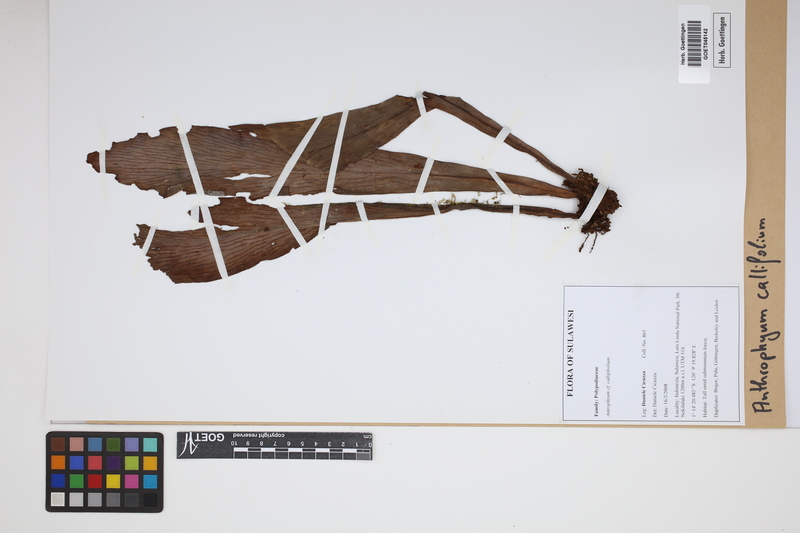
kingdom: Plantae
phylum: Tracheophyta
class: Polypodiopsida
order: Polypodiales
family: Pteridaceae
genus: Antrophyum
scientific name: Antrophyum callifolium
